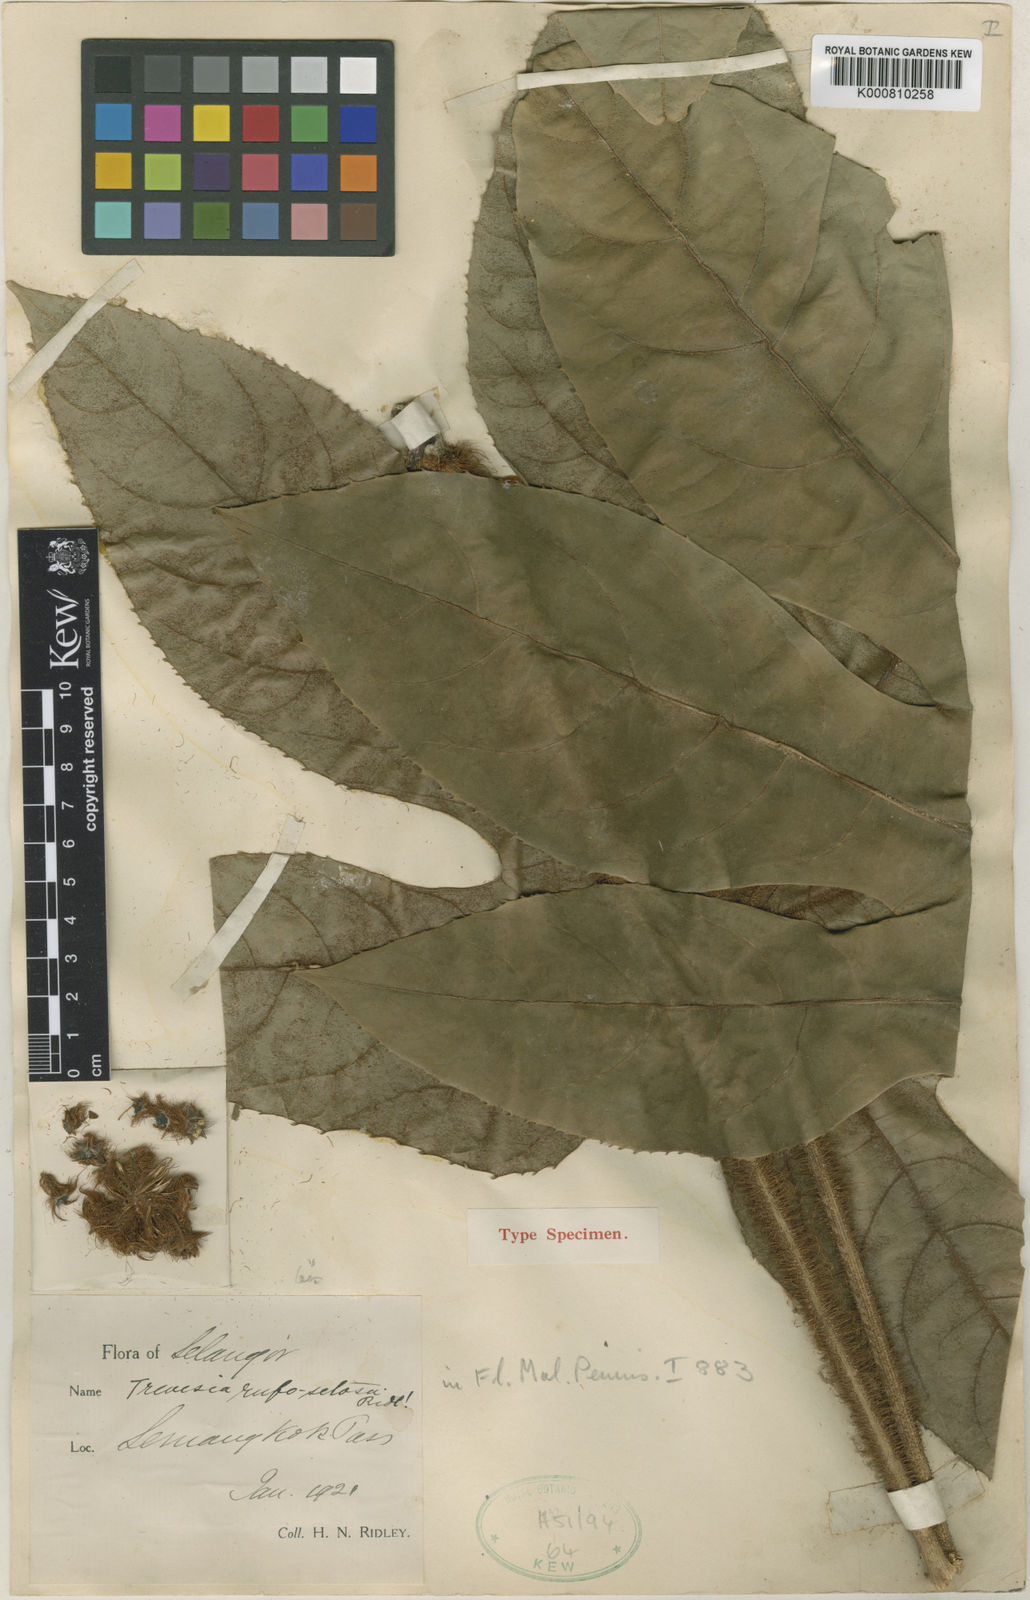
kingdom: Plantae
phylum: Tracheophyta
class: Magnoliopsida
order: Apiales
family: Araliaceae
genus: Brassaiopsis
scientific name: Brassaiopsis rufosetosa
